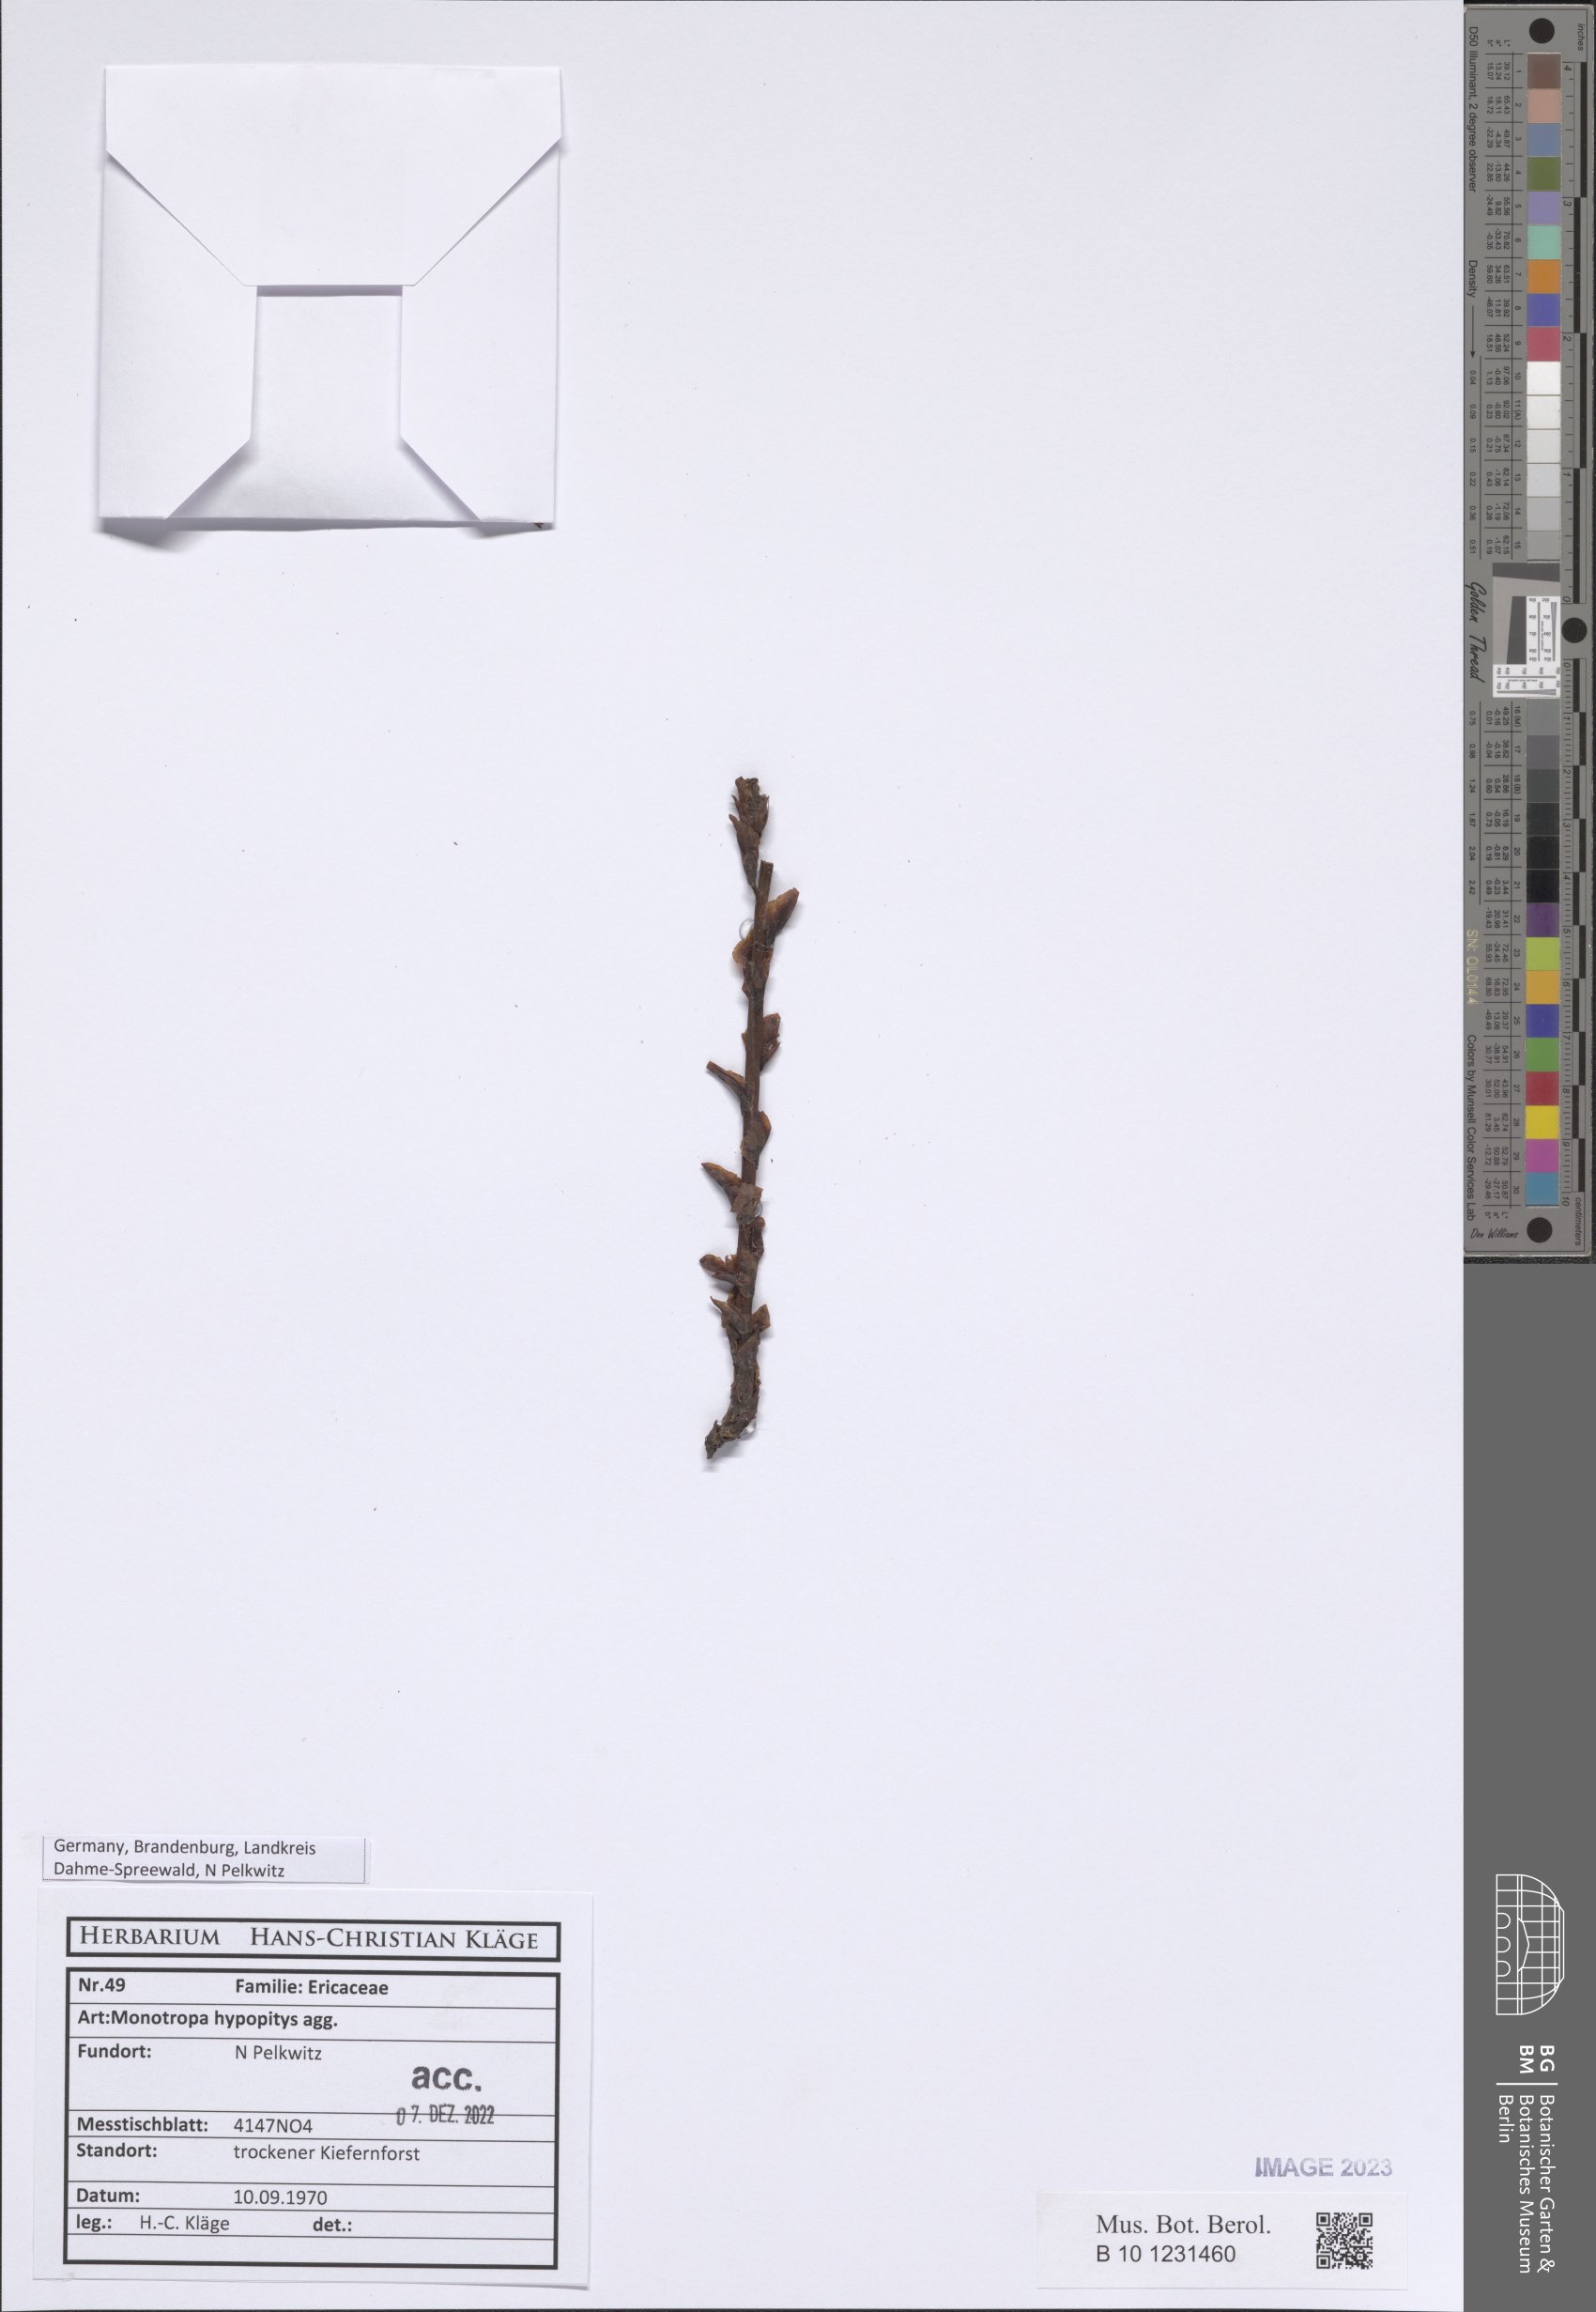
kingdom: Plantae
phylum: Tracheophyta
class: Magnoliopsida
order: Ericales
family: Ericaceae
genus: Hypopitys
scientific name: Hypopitys monotropa
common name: Yellow bird's-nest
